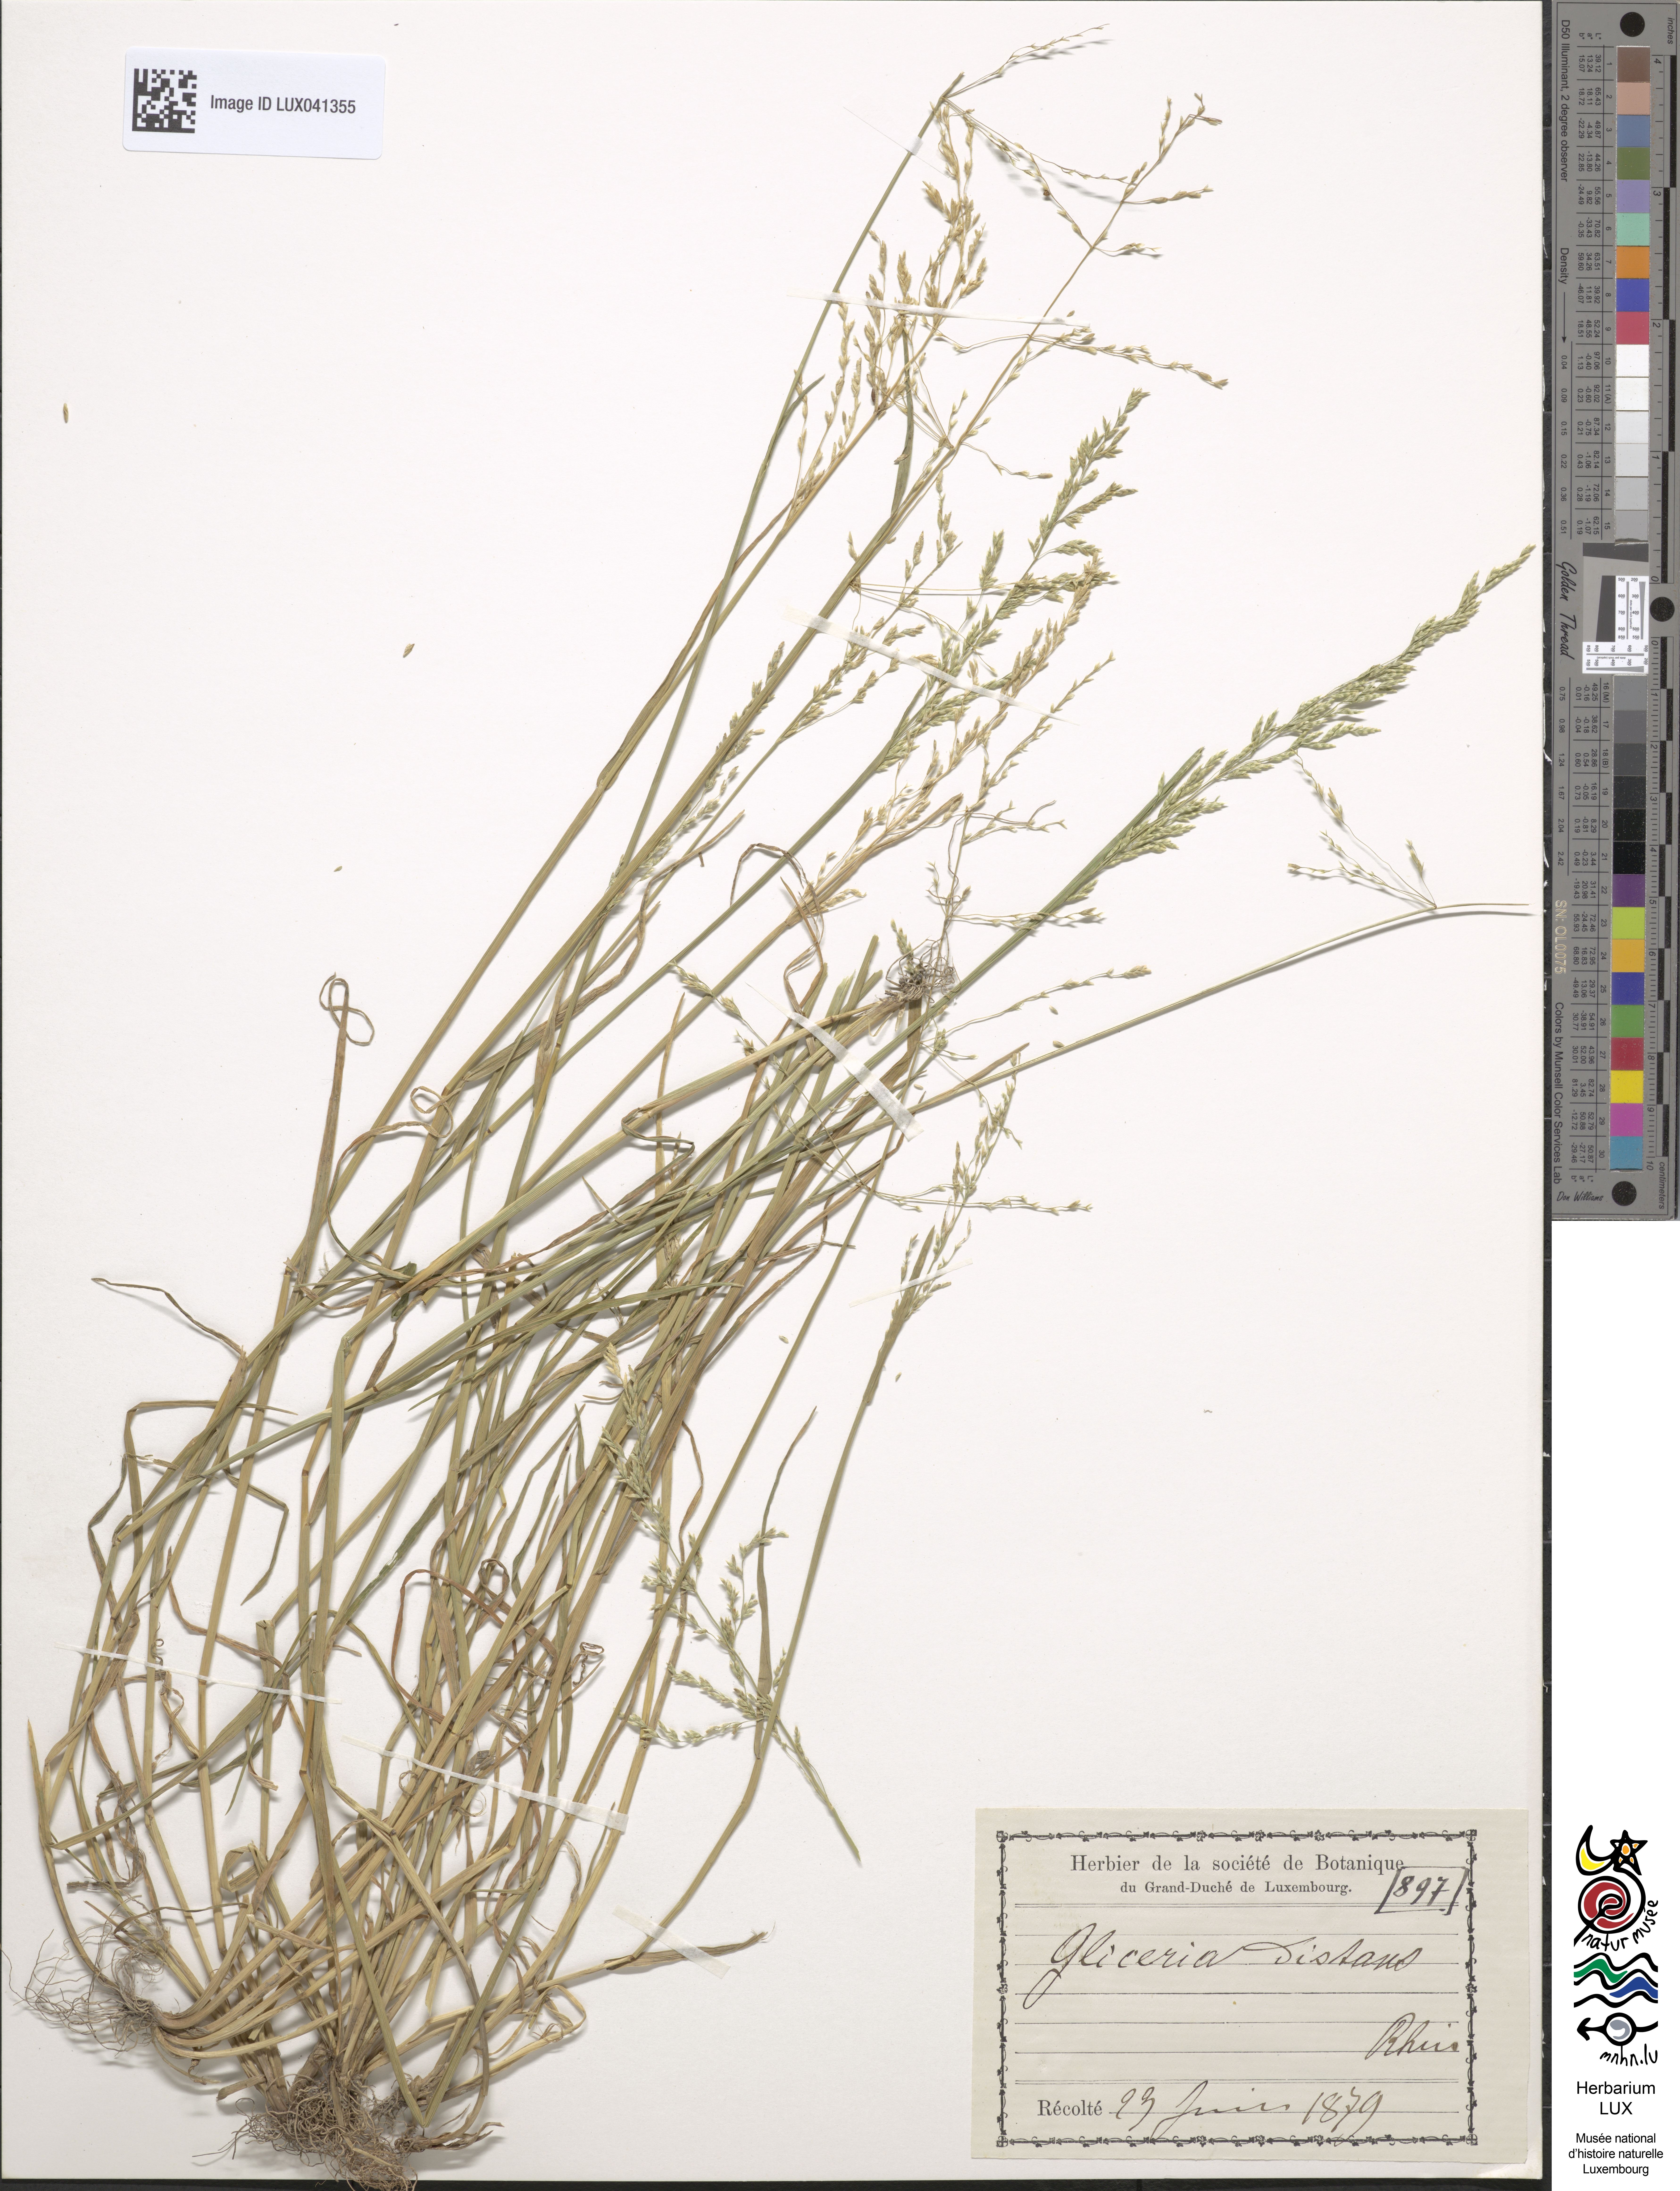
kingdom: Plantae
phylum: Tracheophyta
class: Liliopsida
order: Poales
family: Poaceae
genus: Puccinellia
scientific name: Puccinellia distans
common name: Weeping alkaligrass
